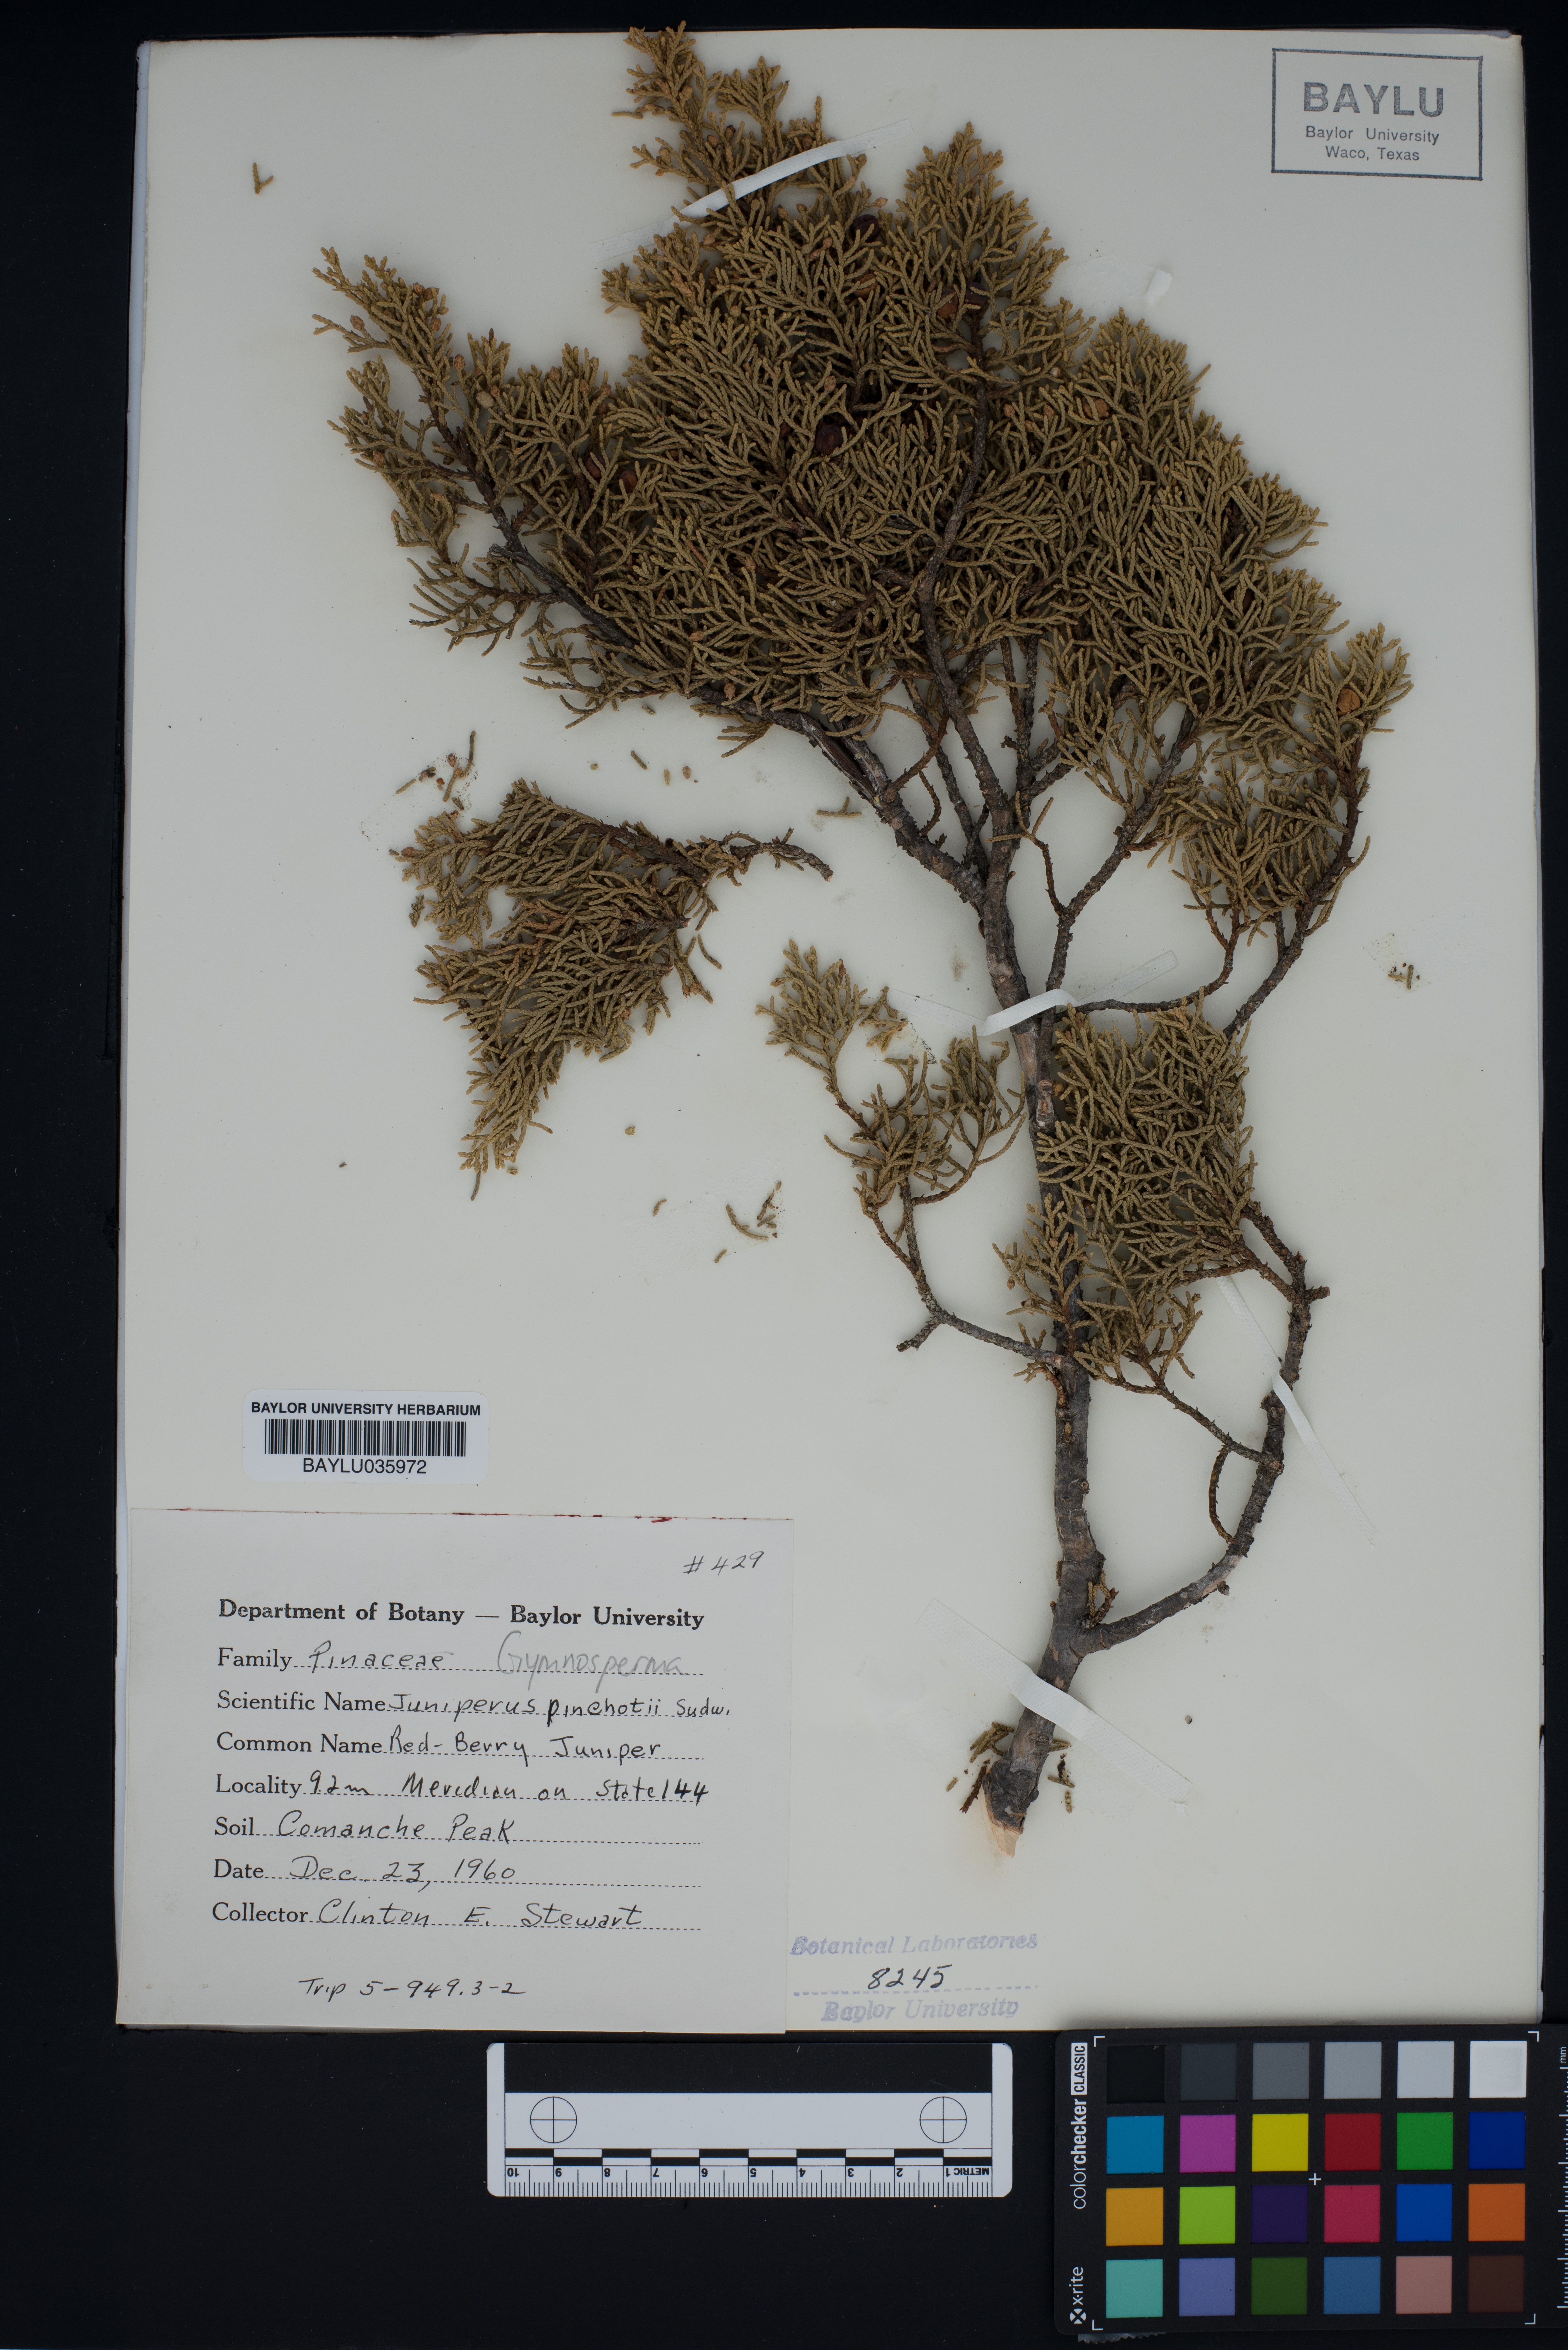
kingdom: Plantae
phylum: Tracheophyta
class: Pinopsida
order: Pinales
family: Cupressaceae
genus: Juniperus
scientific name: Juniperus pinchotii
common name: Pinchot juniper
